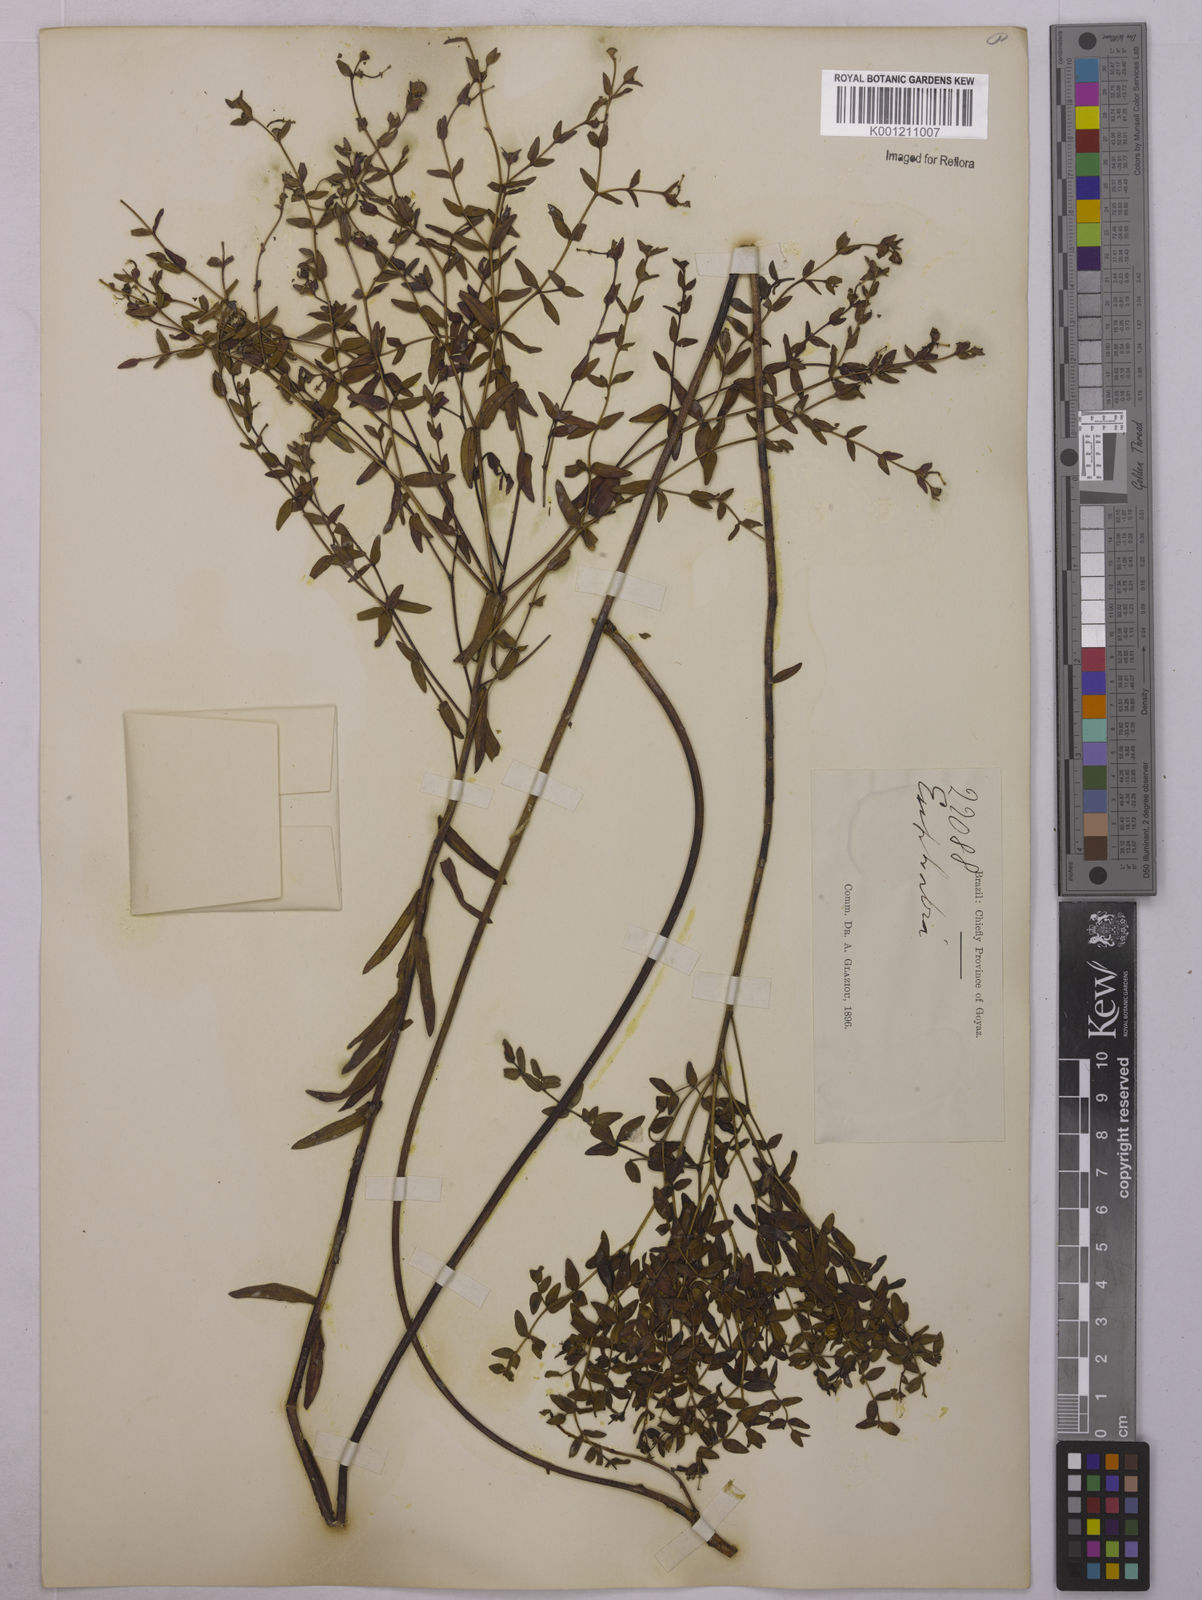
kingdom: Plantae
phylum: Tracheophyta
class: Magnoliopsida
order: Malpighiales
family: Euphorbiaceae
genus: Euphorbia
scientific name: Euphorbia
